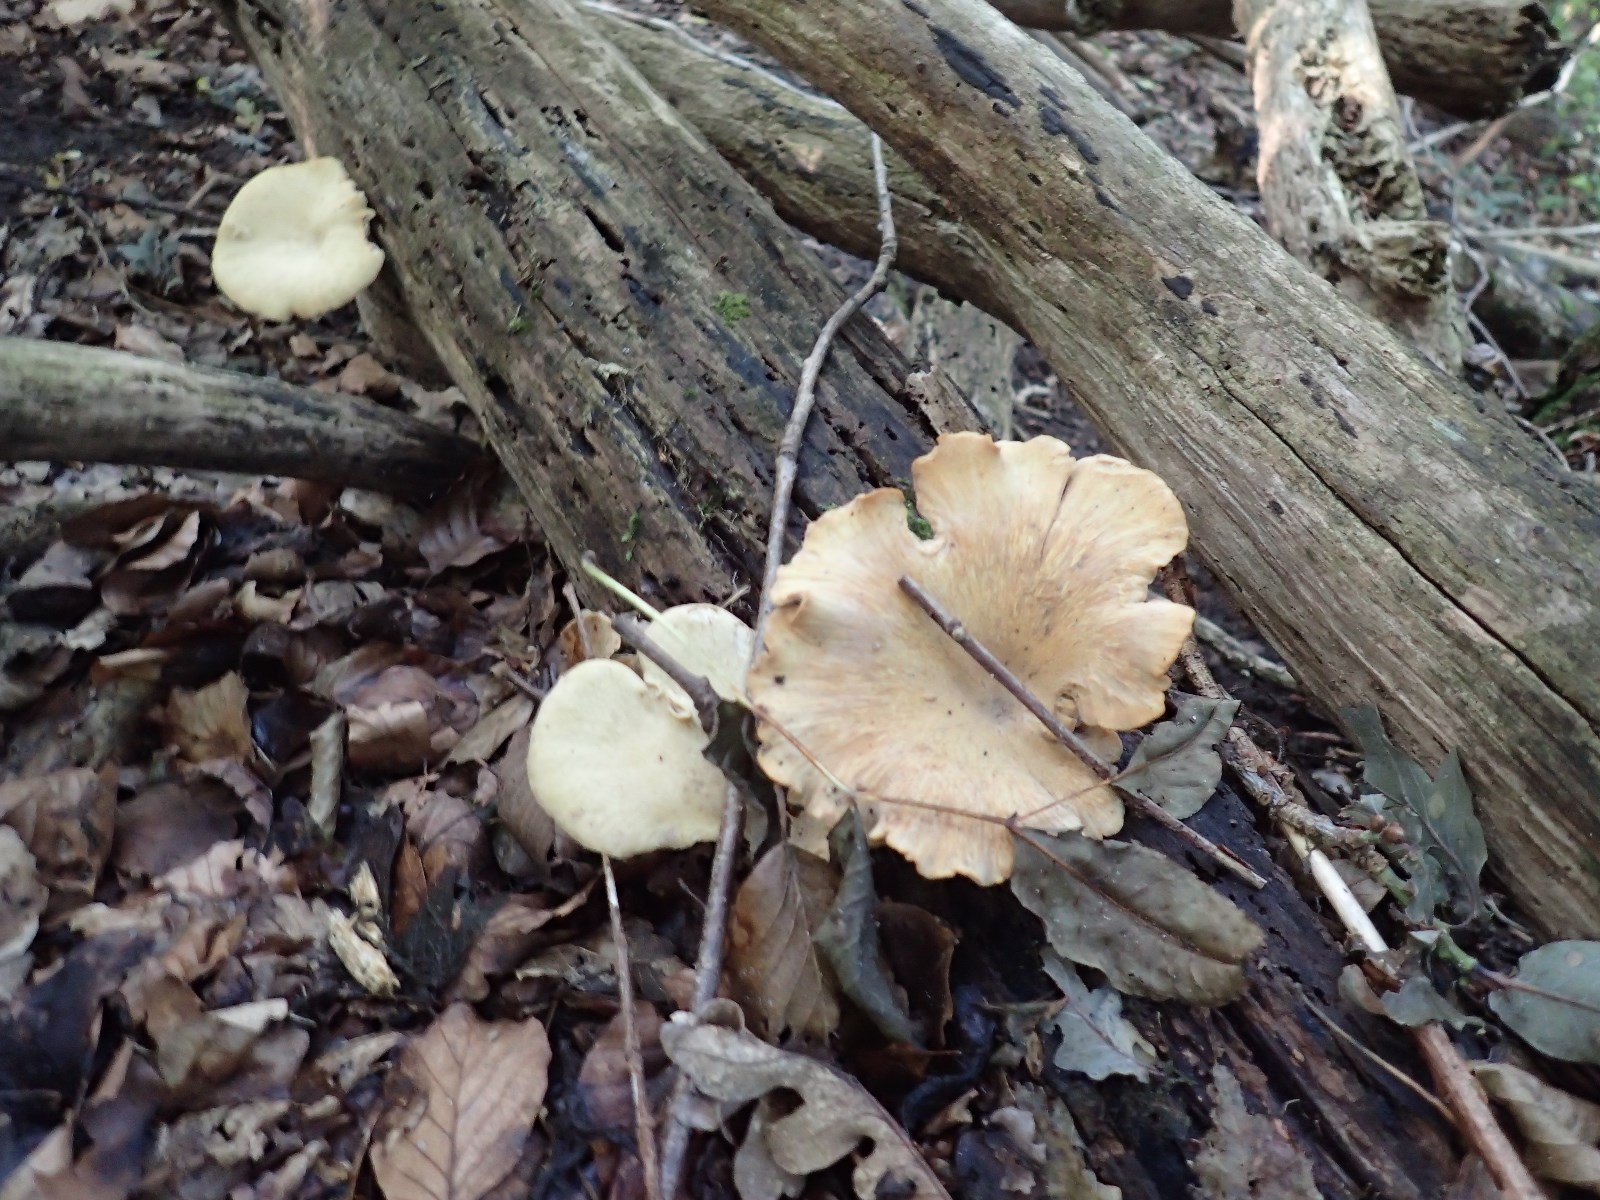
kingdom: Fungi
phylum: Basidiomycota
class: Agaricomycetes
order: Polyporales
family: Polyporaceae
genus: Cerioporus
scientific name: Cerioporus varius
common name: foranderlig stilkporesvamp
